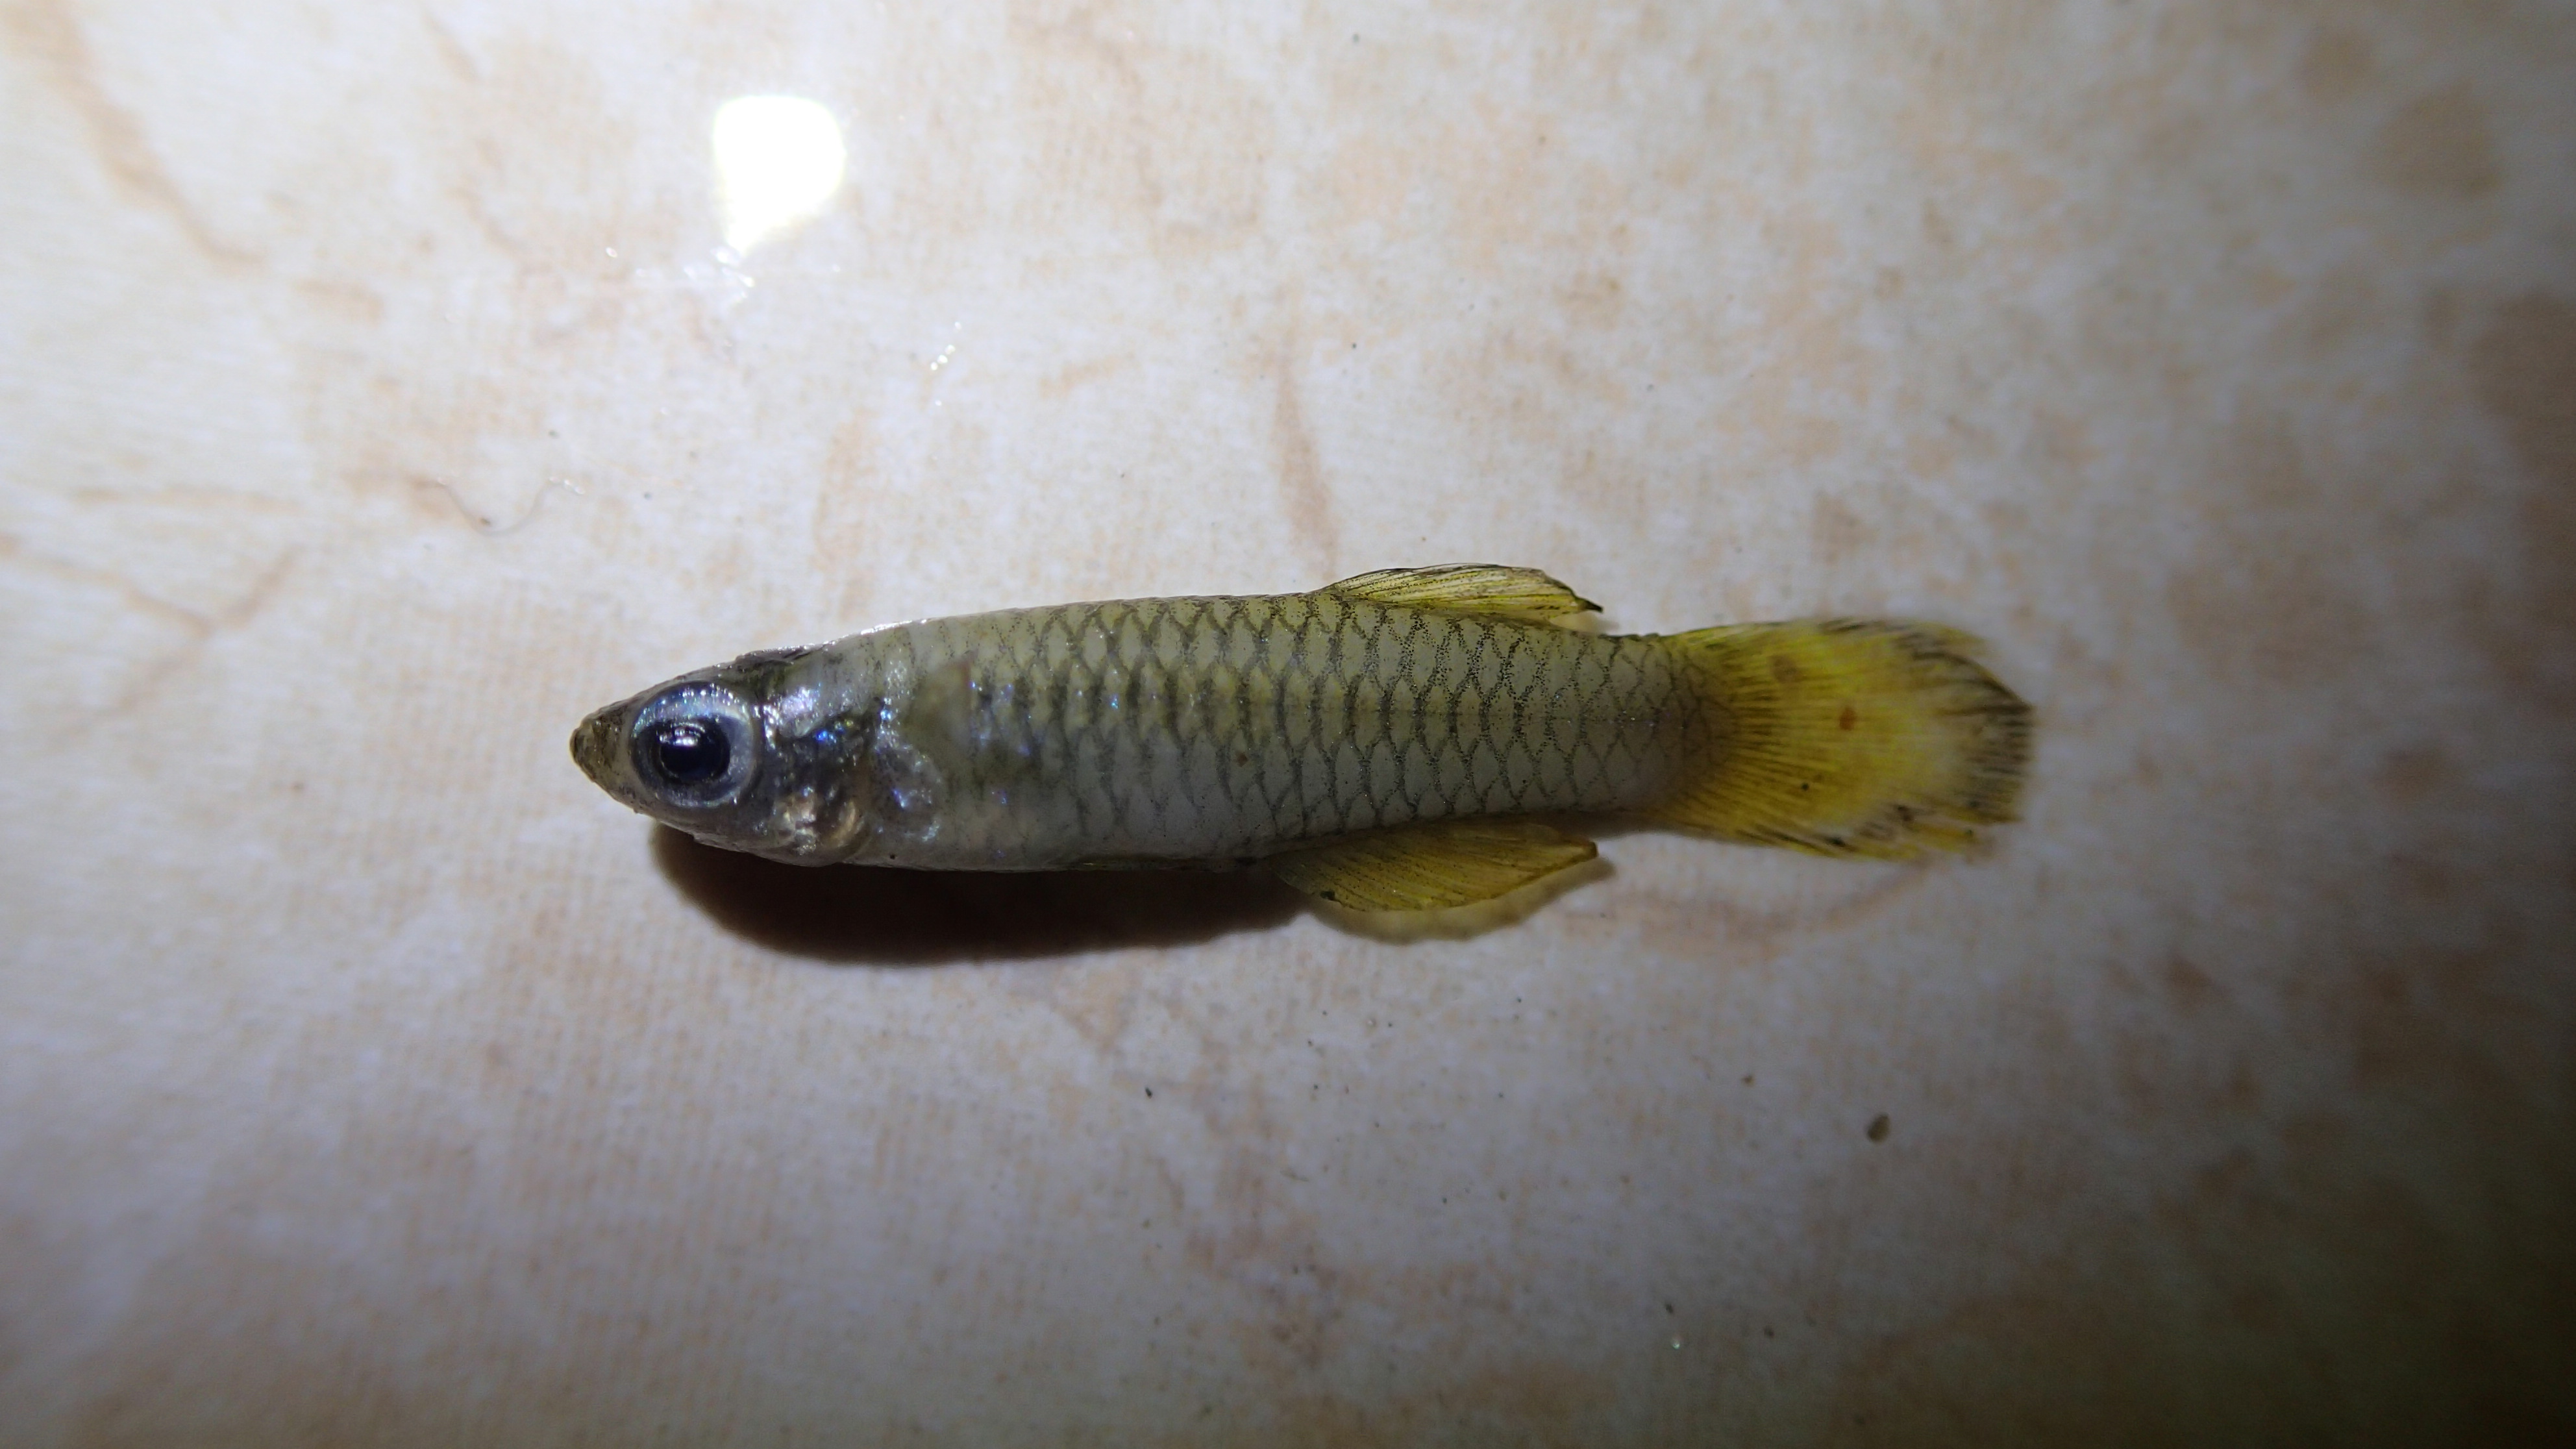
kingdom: Animalia
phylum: Chordata
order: Cyprinodontiformes
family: Poeciliidae
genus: Aplocheilichthys
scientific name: Aplocheilichthys
